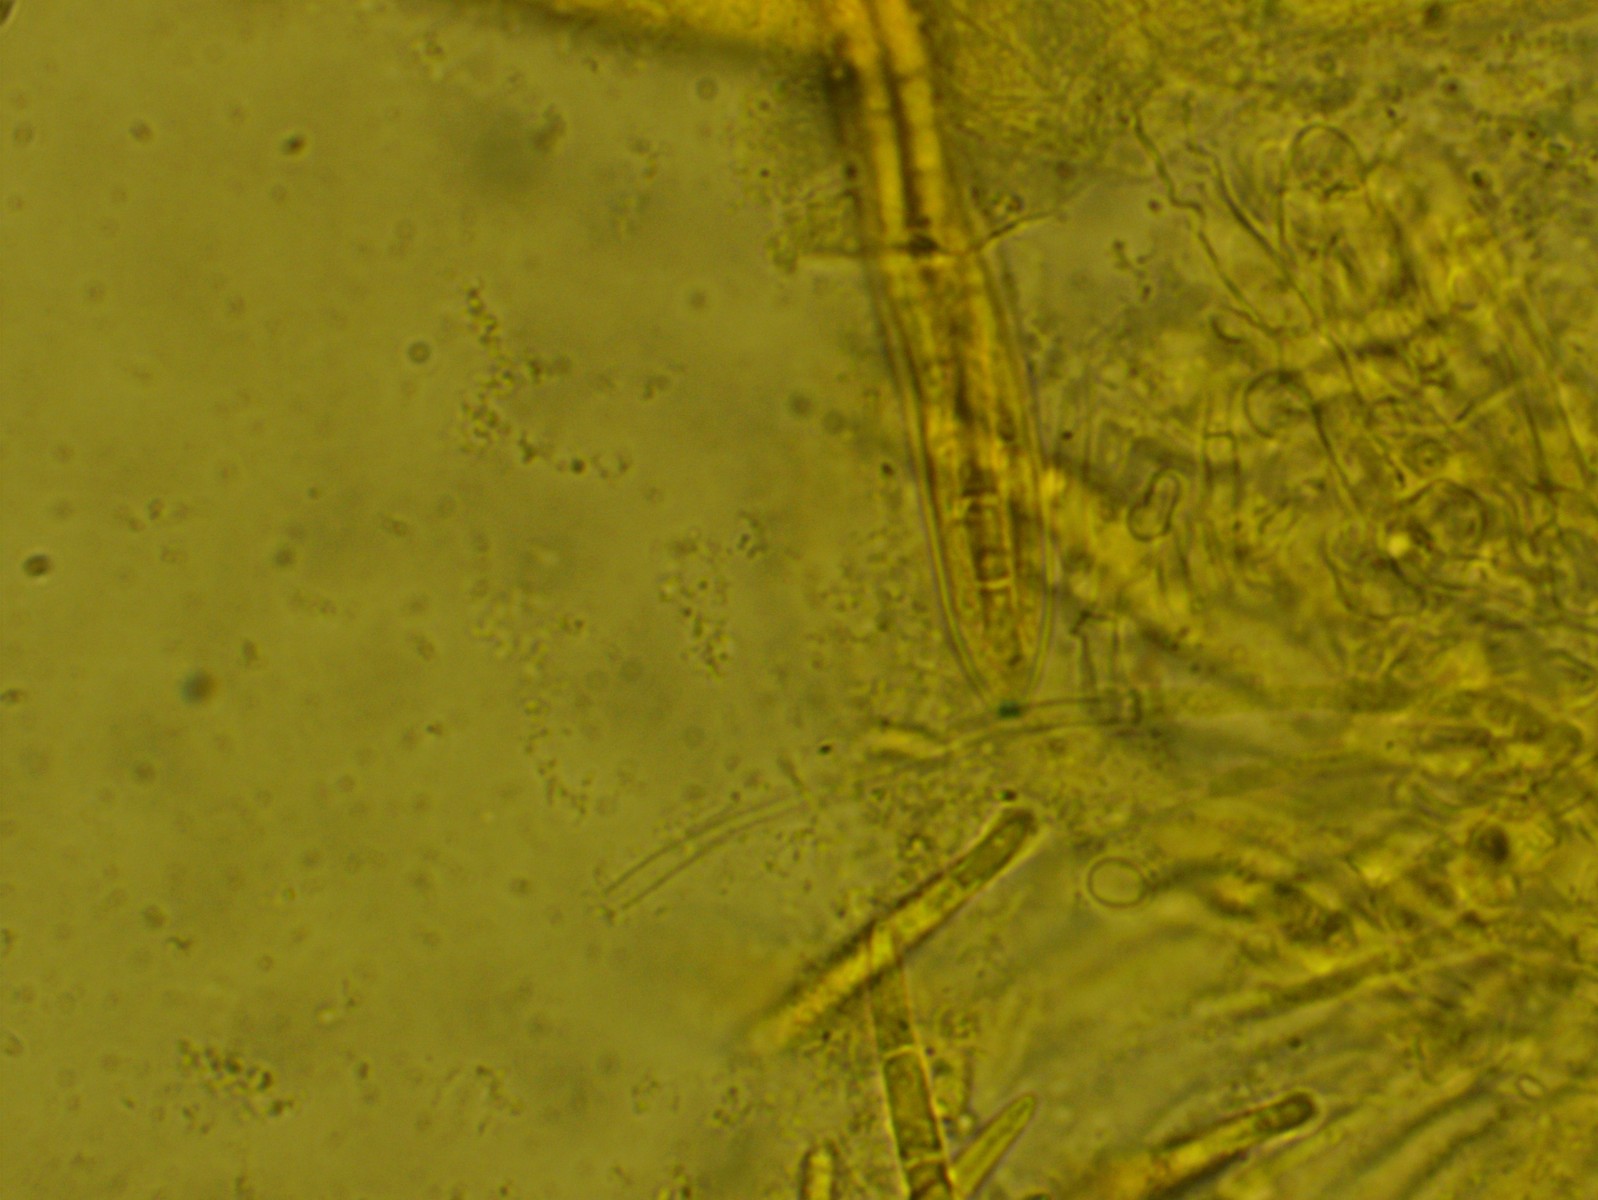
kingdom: Fungi
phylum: Ascomycota
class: Leotiomycetes
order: Helotiales
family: Ploettnerulaceae
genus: Pyrenopeziza
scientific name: Pyrenopeziza arctii
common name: burre-kerneskive
